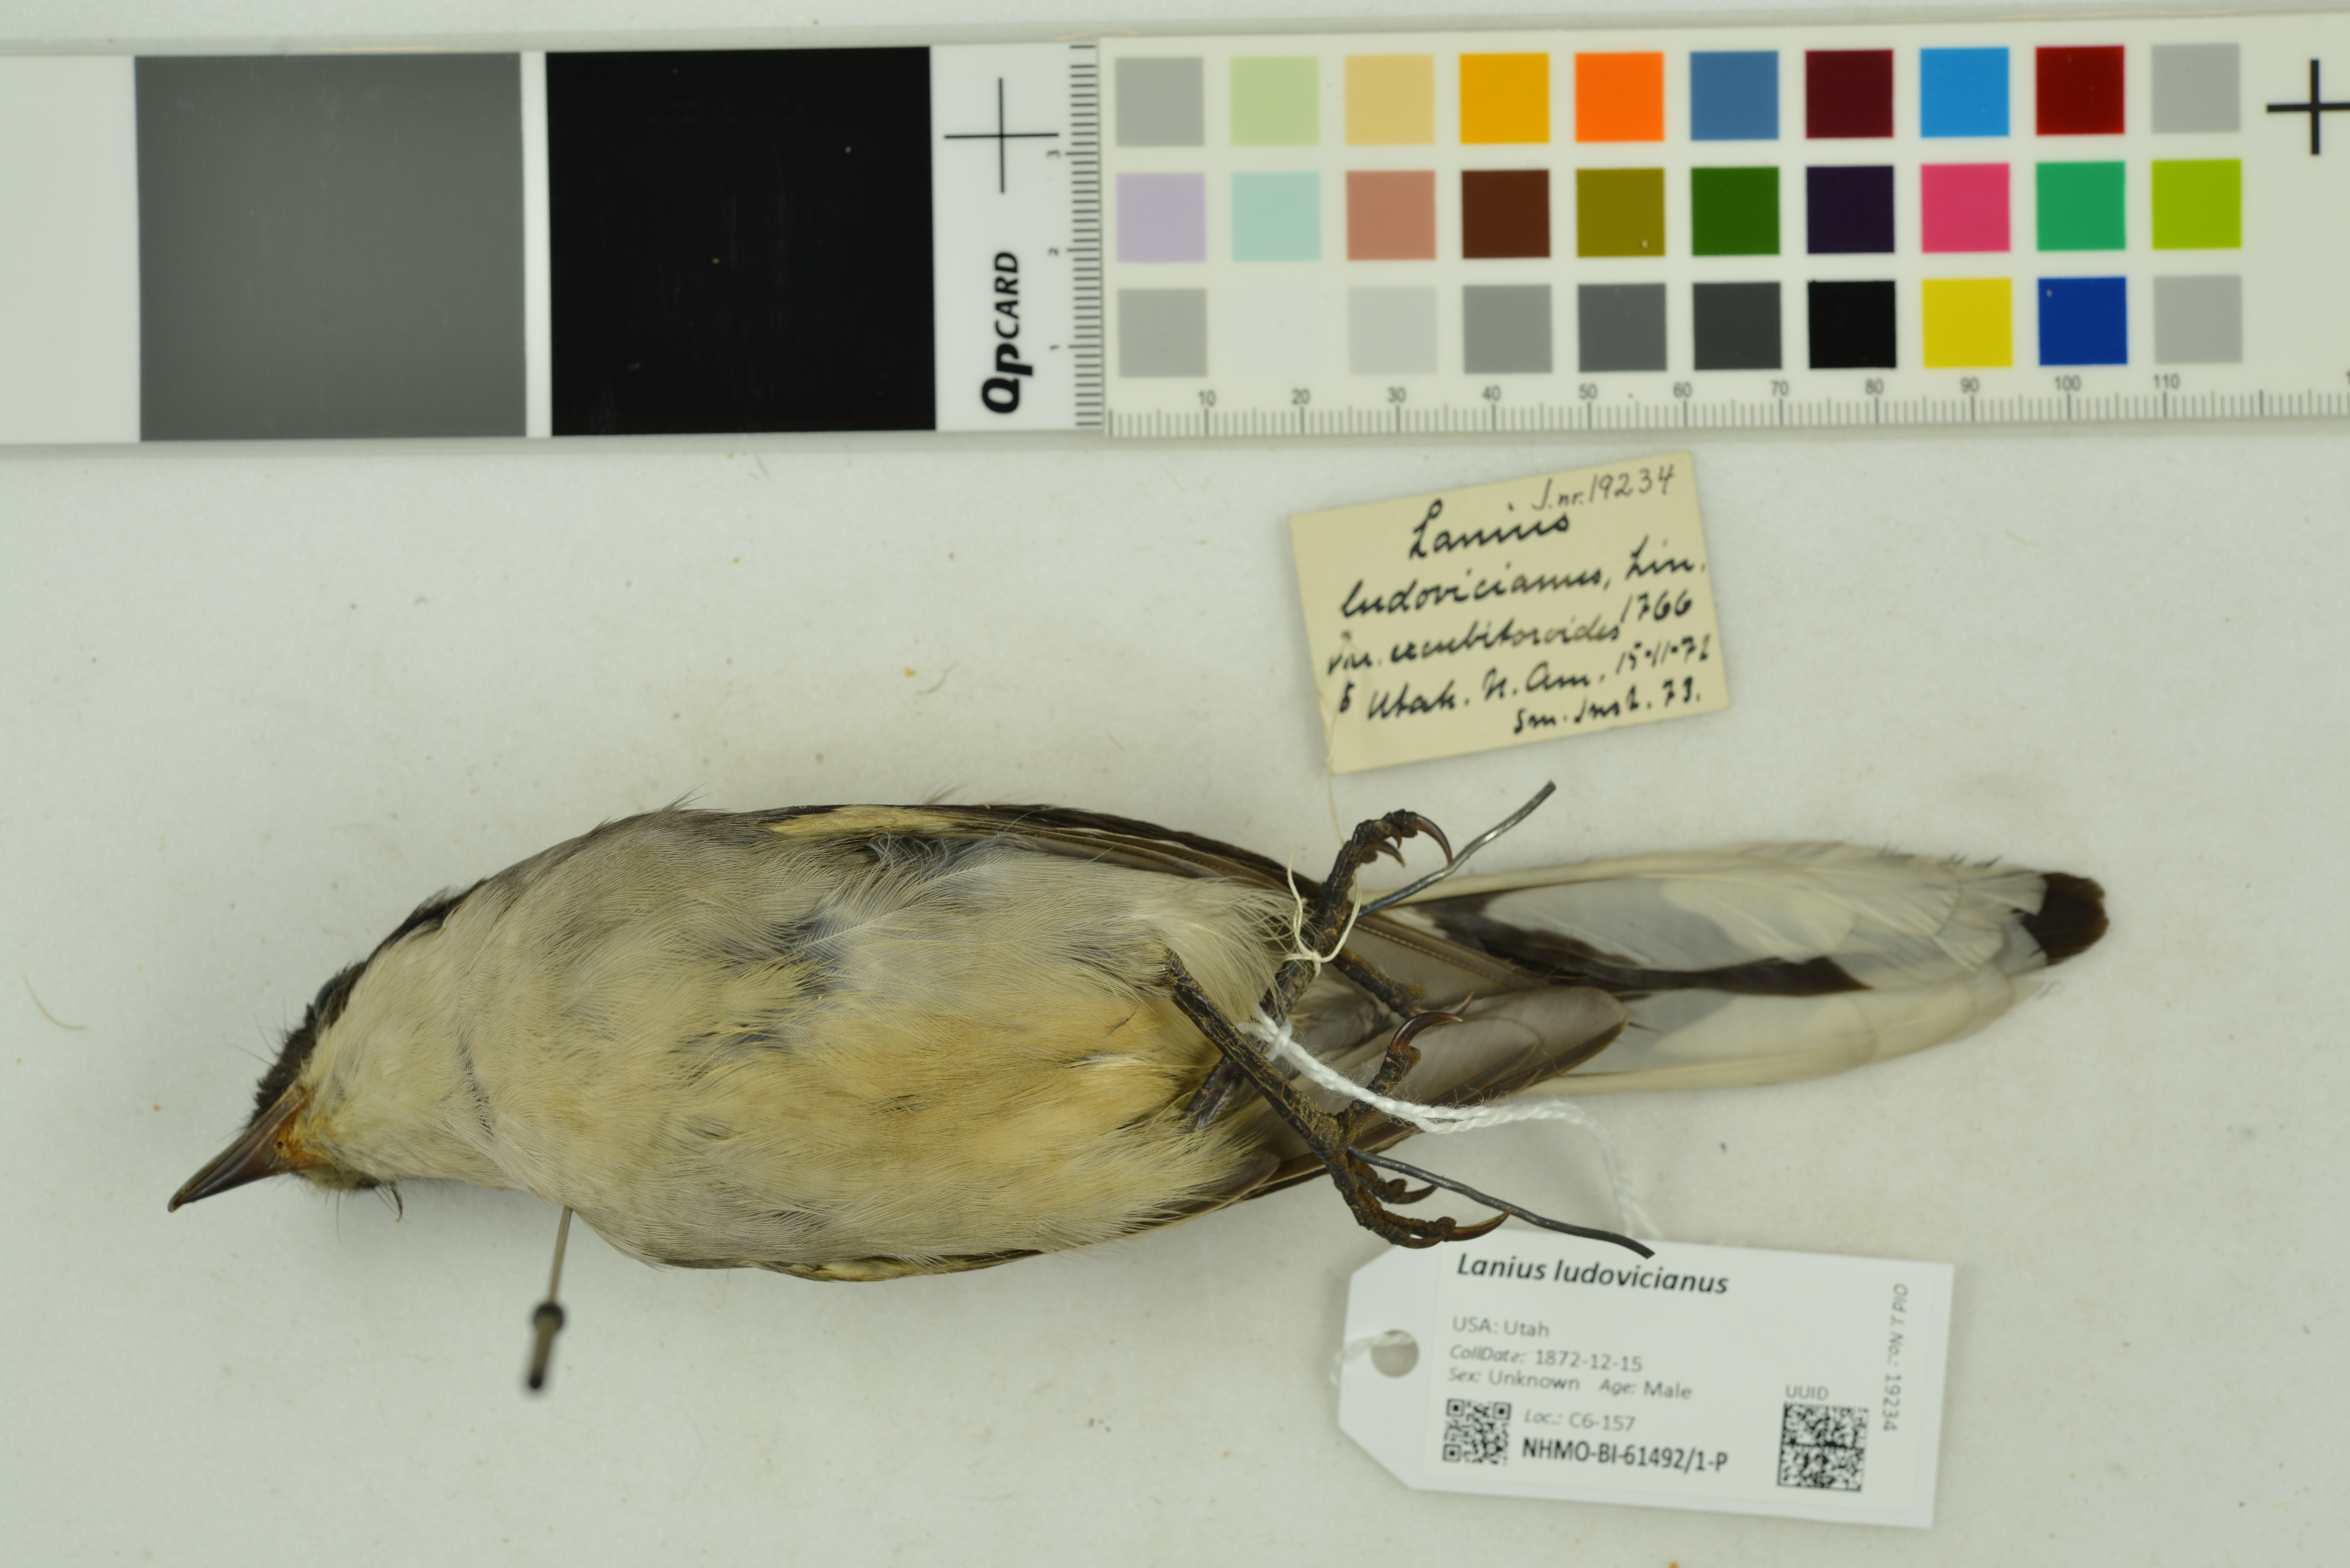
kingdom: Animalia
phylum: Chordata
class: Aves
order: Passeriformes
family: Laniidae
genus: Lanius
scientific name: Lanius ludovicianus
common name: Loggerhead shrike
